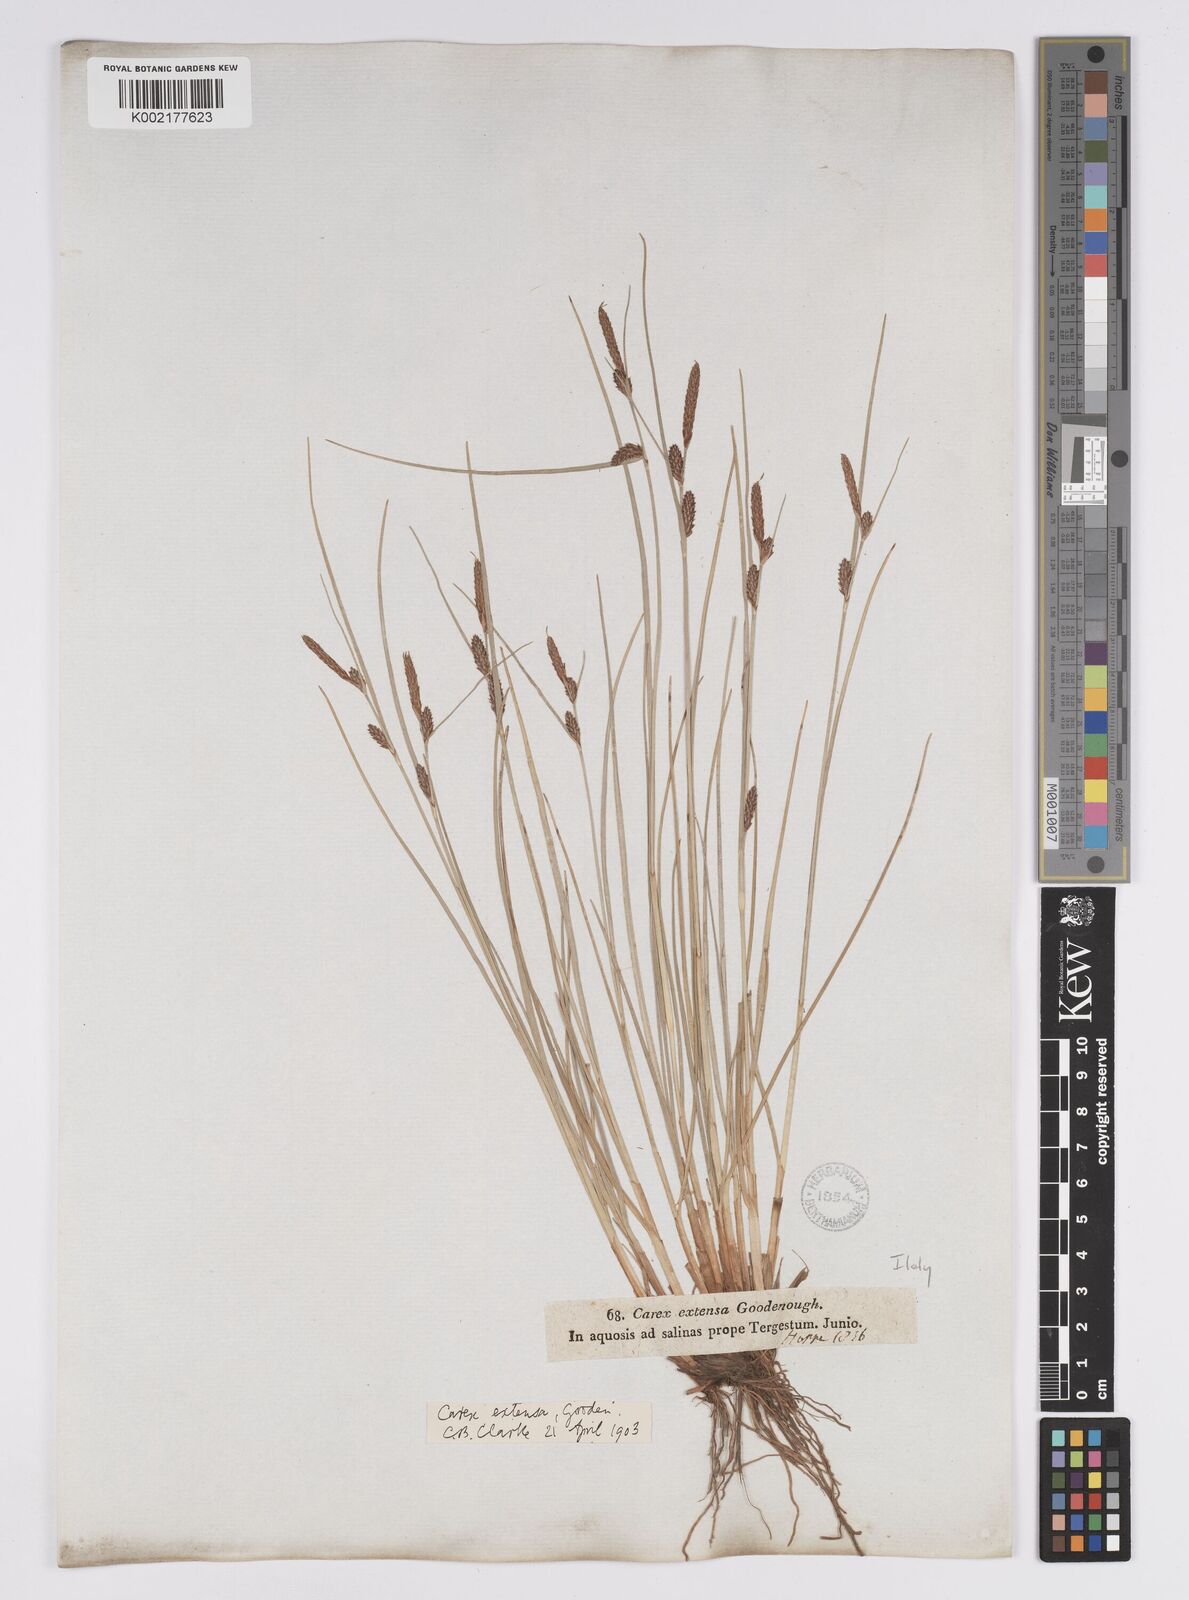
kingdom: Plantae
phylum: Tracheophyta
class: Liliopsida
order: Poales
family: Cyperaceae
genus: Carex
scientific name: Carex extensa
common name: Long-bracted sedge
